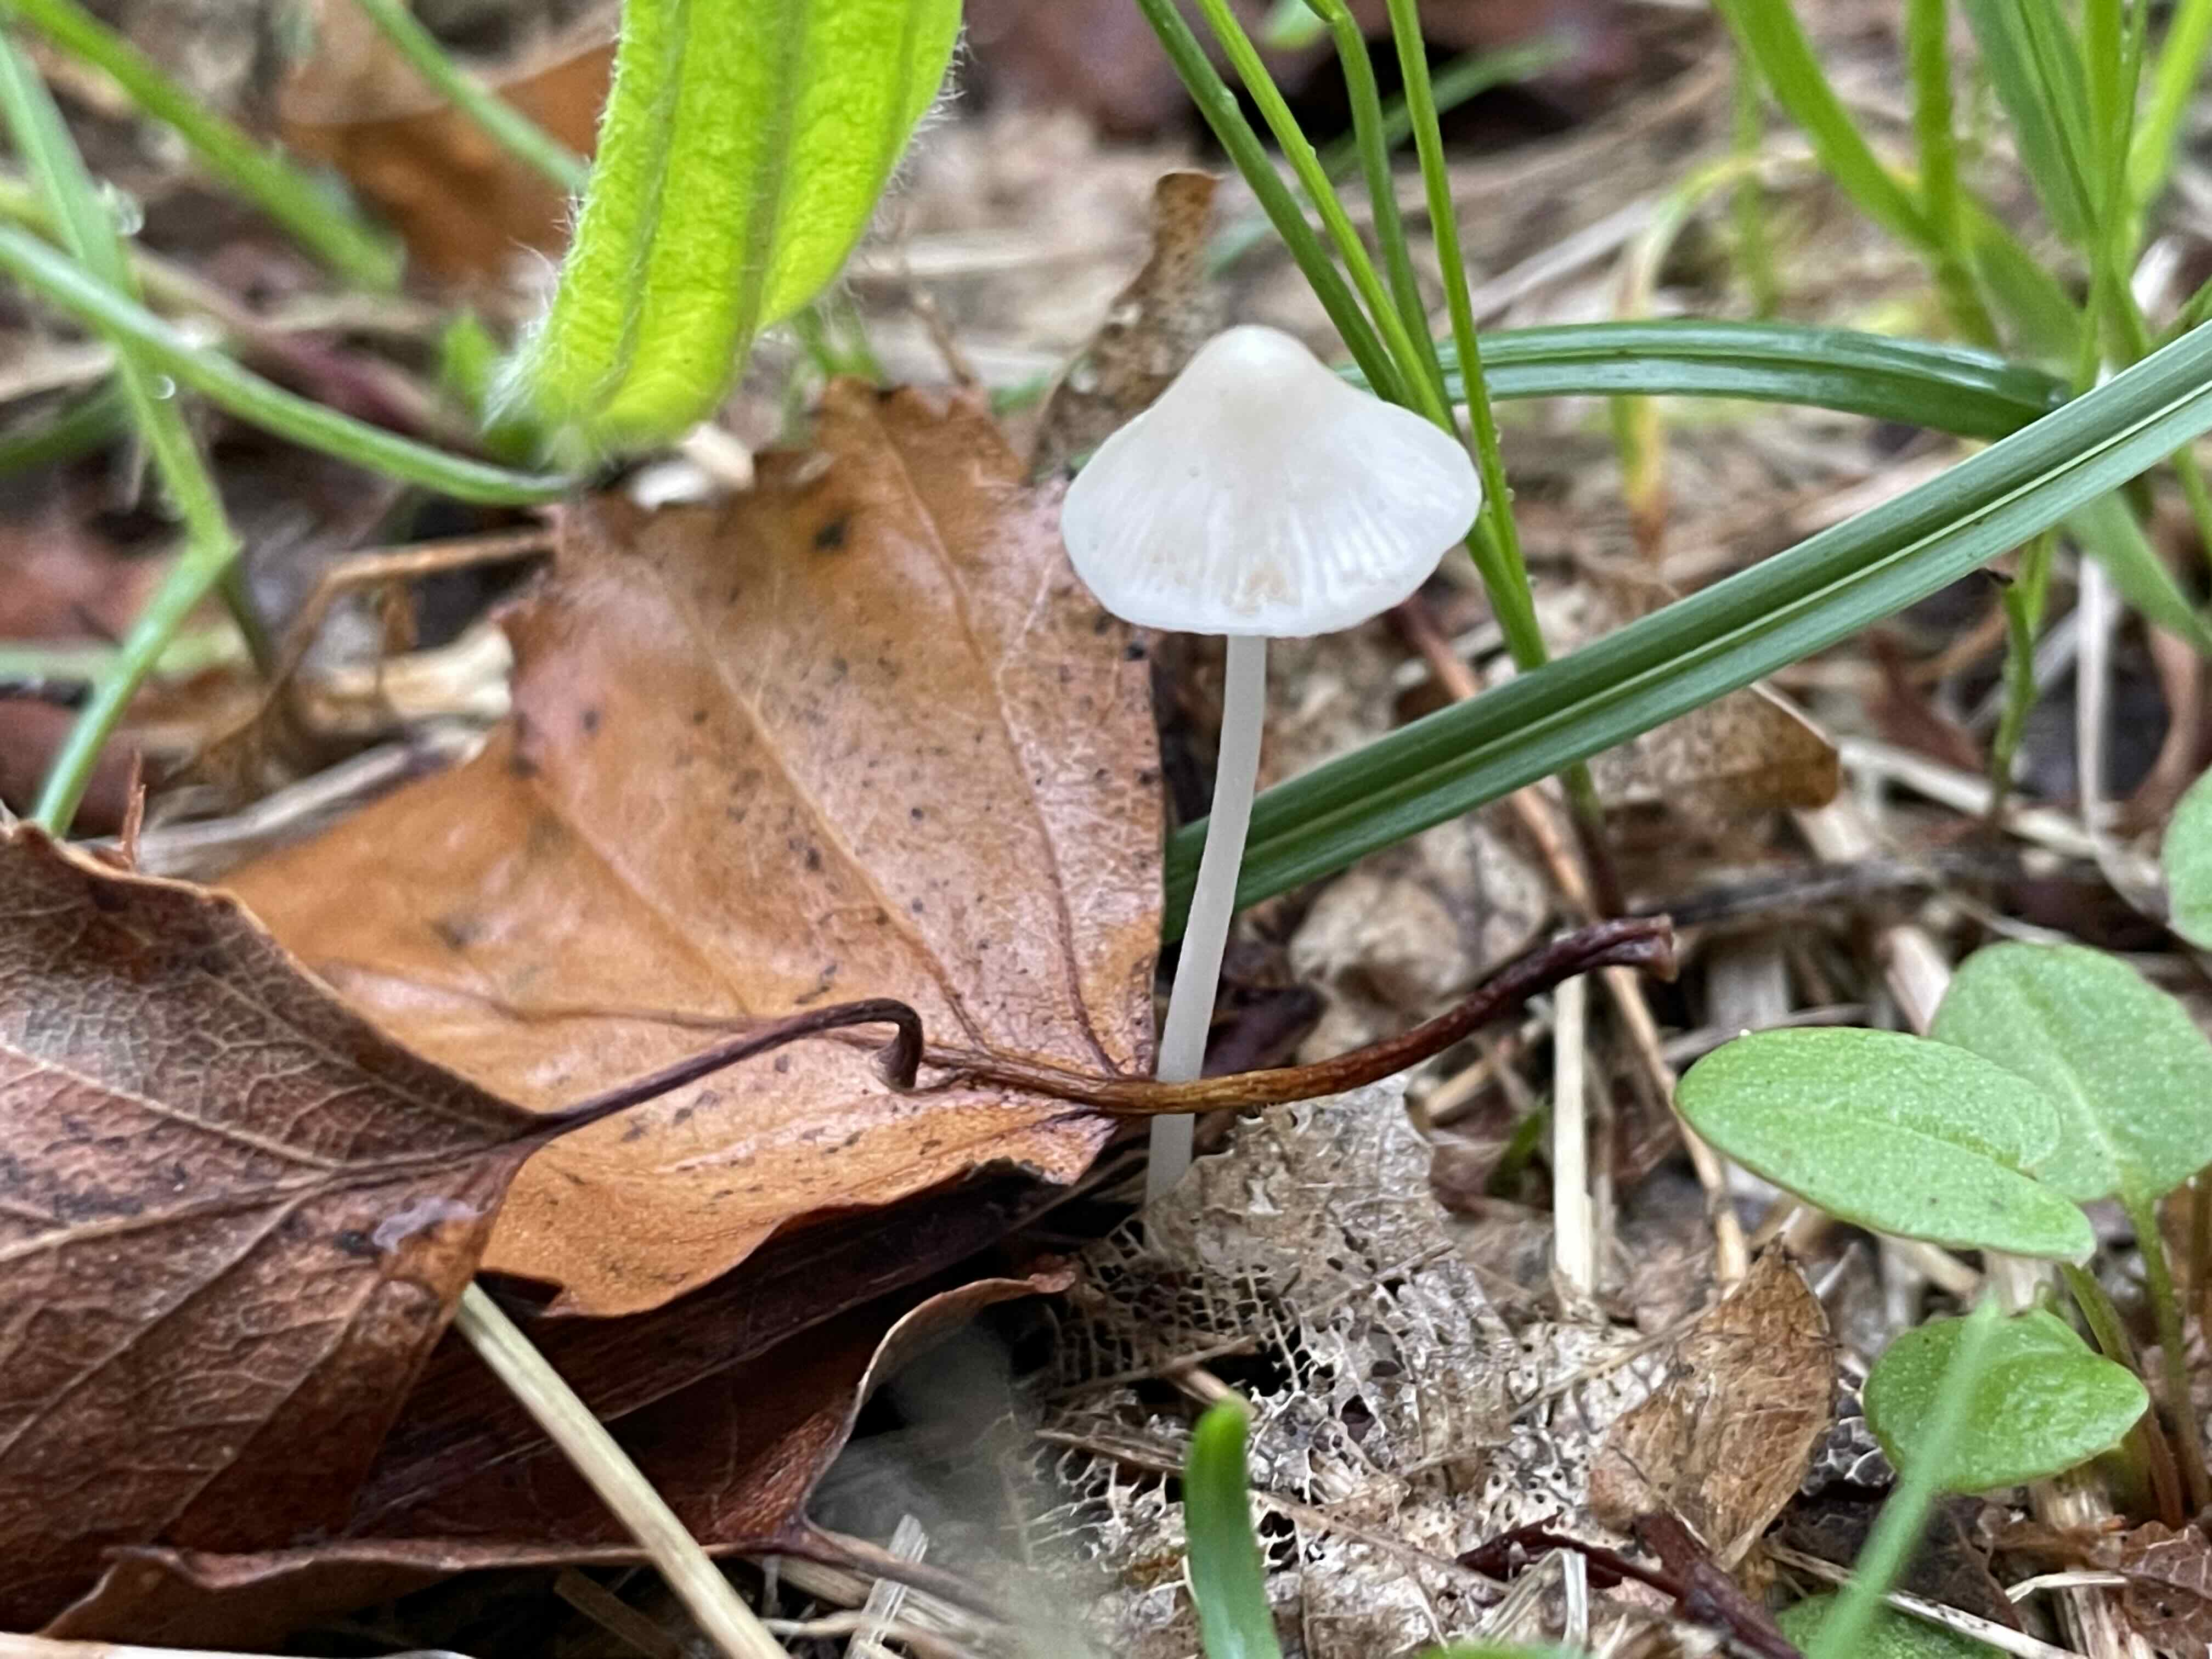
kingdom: Fungi
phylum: Basidiomycota
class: Agaricomycetes
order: Agaricales
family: Mycenaceae
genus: Mycena
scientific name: Mycena vitilis
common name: blankstokket huesvamp
